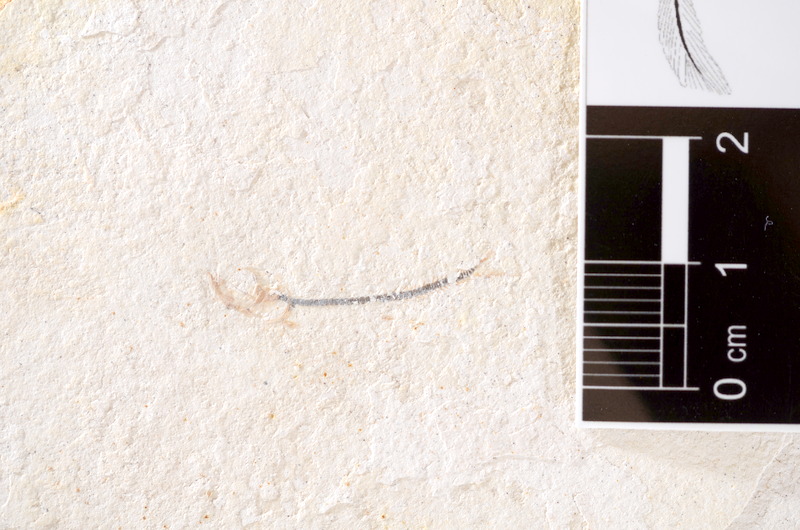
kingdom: Animalia
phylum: Chordata
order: Salmoniformes
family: Orthogonikleithridae
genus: Orthogonikleithrus
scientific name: Orthogonikleithrus hoelli
